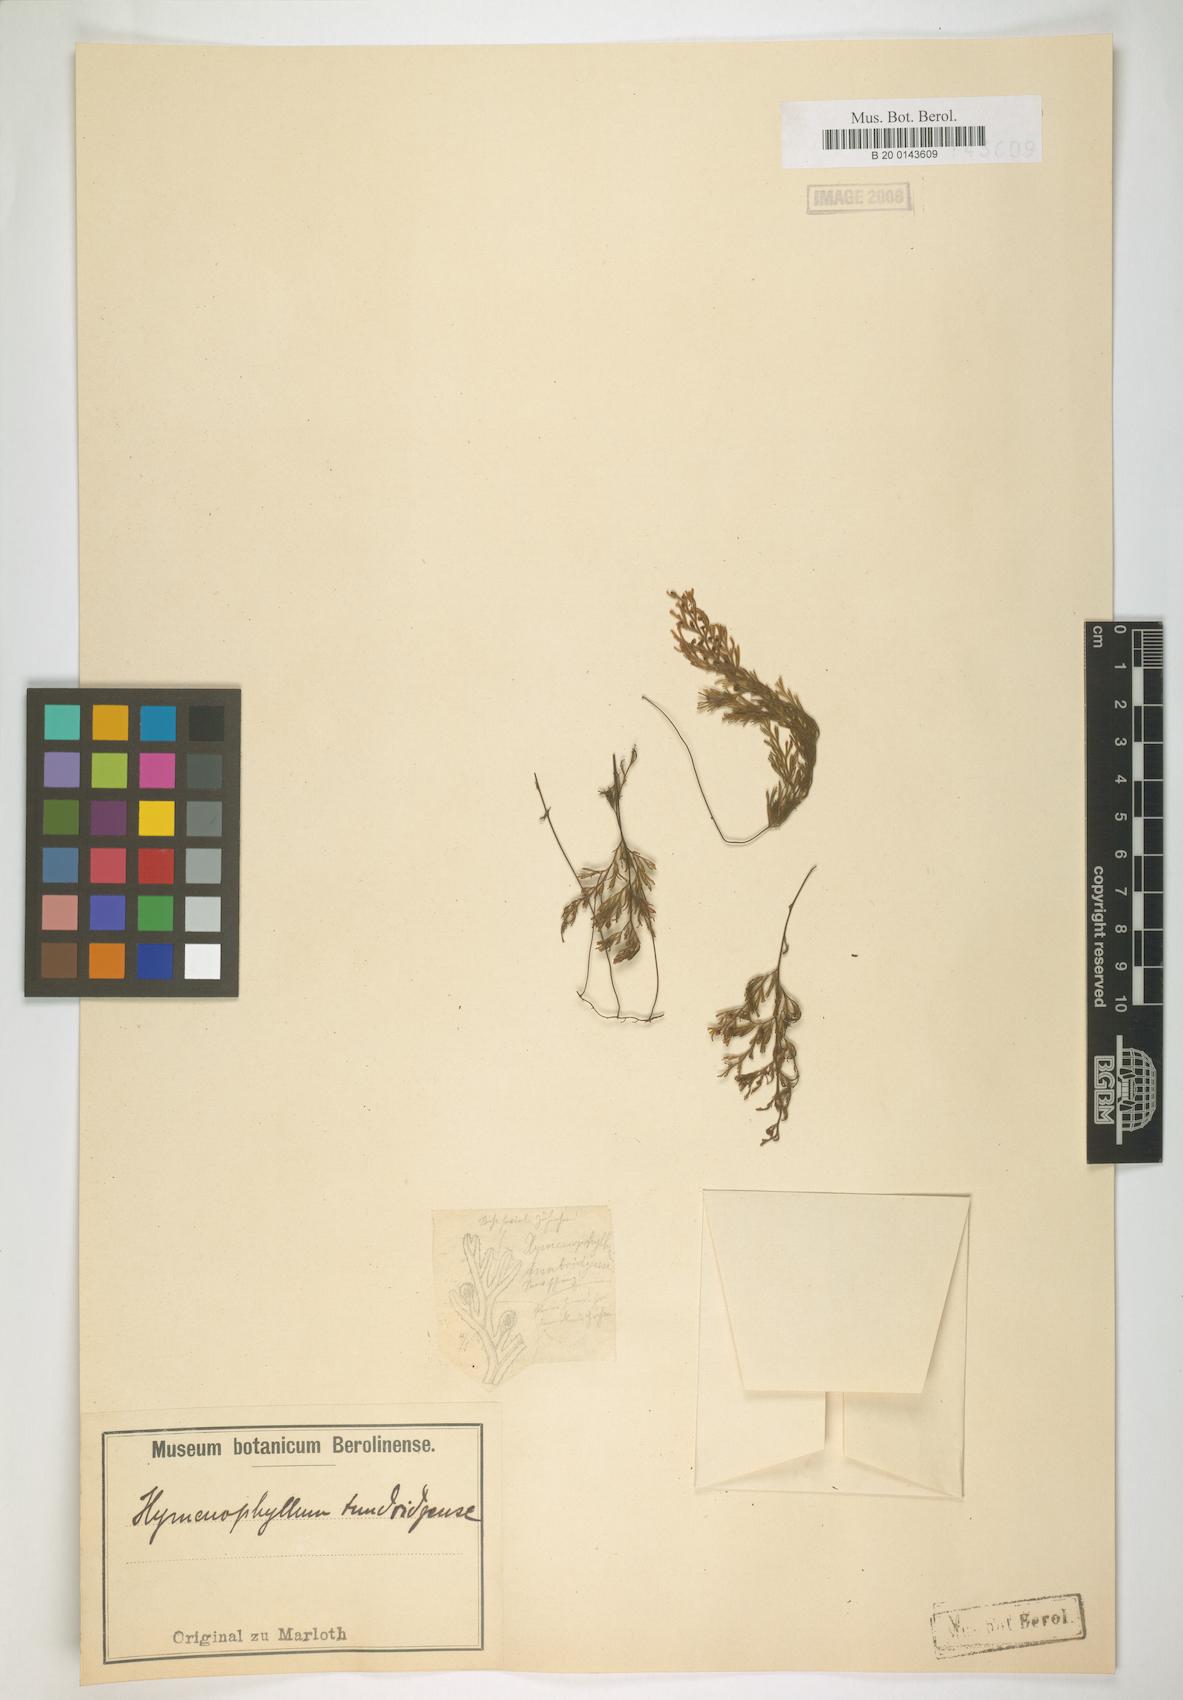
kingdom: Plantae
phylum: Tracheophyta
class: Polypodiopsida
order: Hymenophyllales
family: Hymenophyllaceae
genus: Hymenophyllum
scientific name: Hymenophyllum tunbrigense
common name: Tunbridge filmy fern
